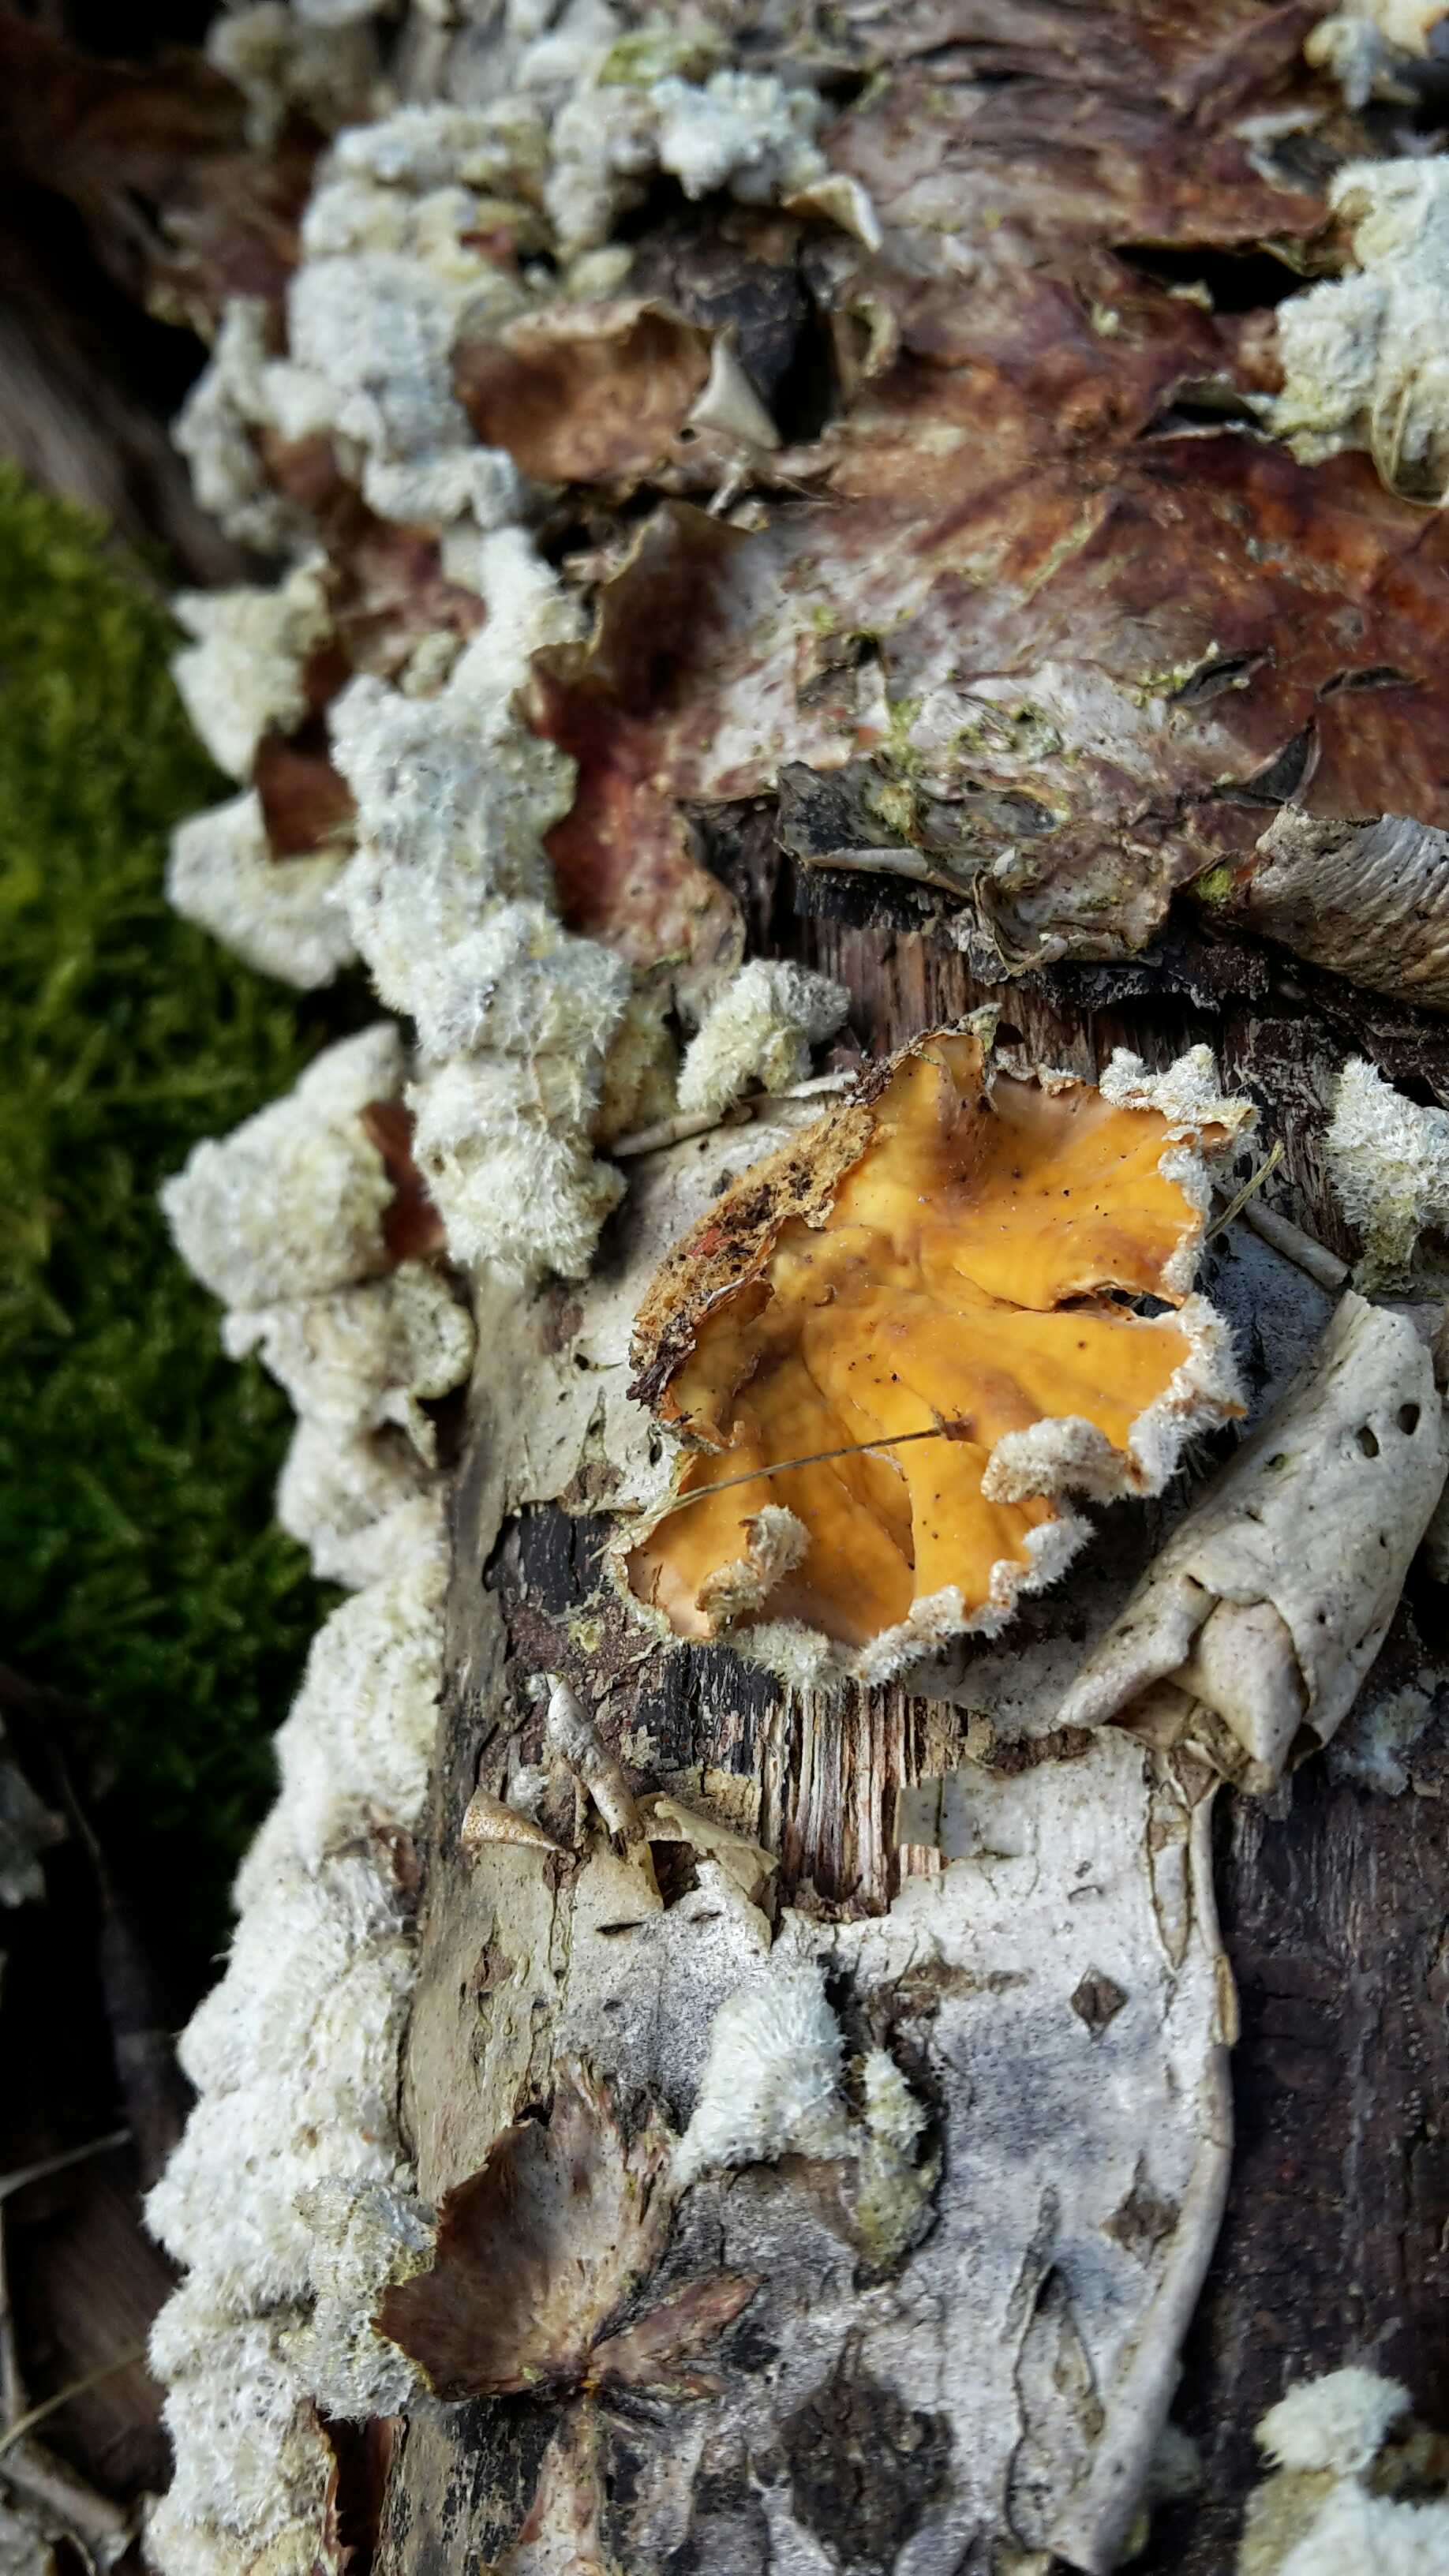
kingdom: Fungi
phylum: Basidiomycota
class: Agaricomycetes
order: Russulales
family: Stereaceae
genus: Stereum
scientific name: Stereum hirsutum
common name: håret lædersvamp
